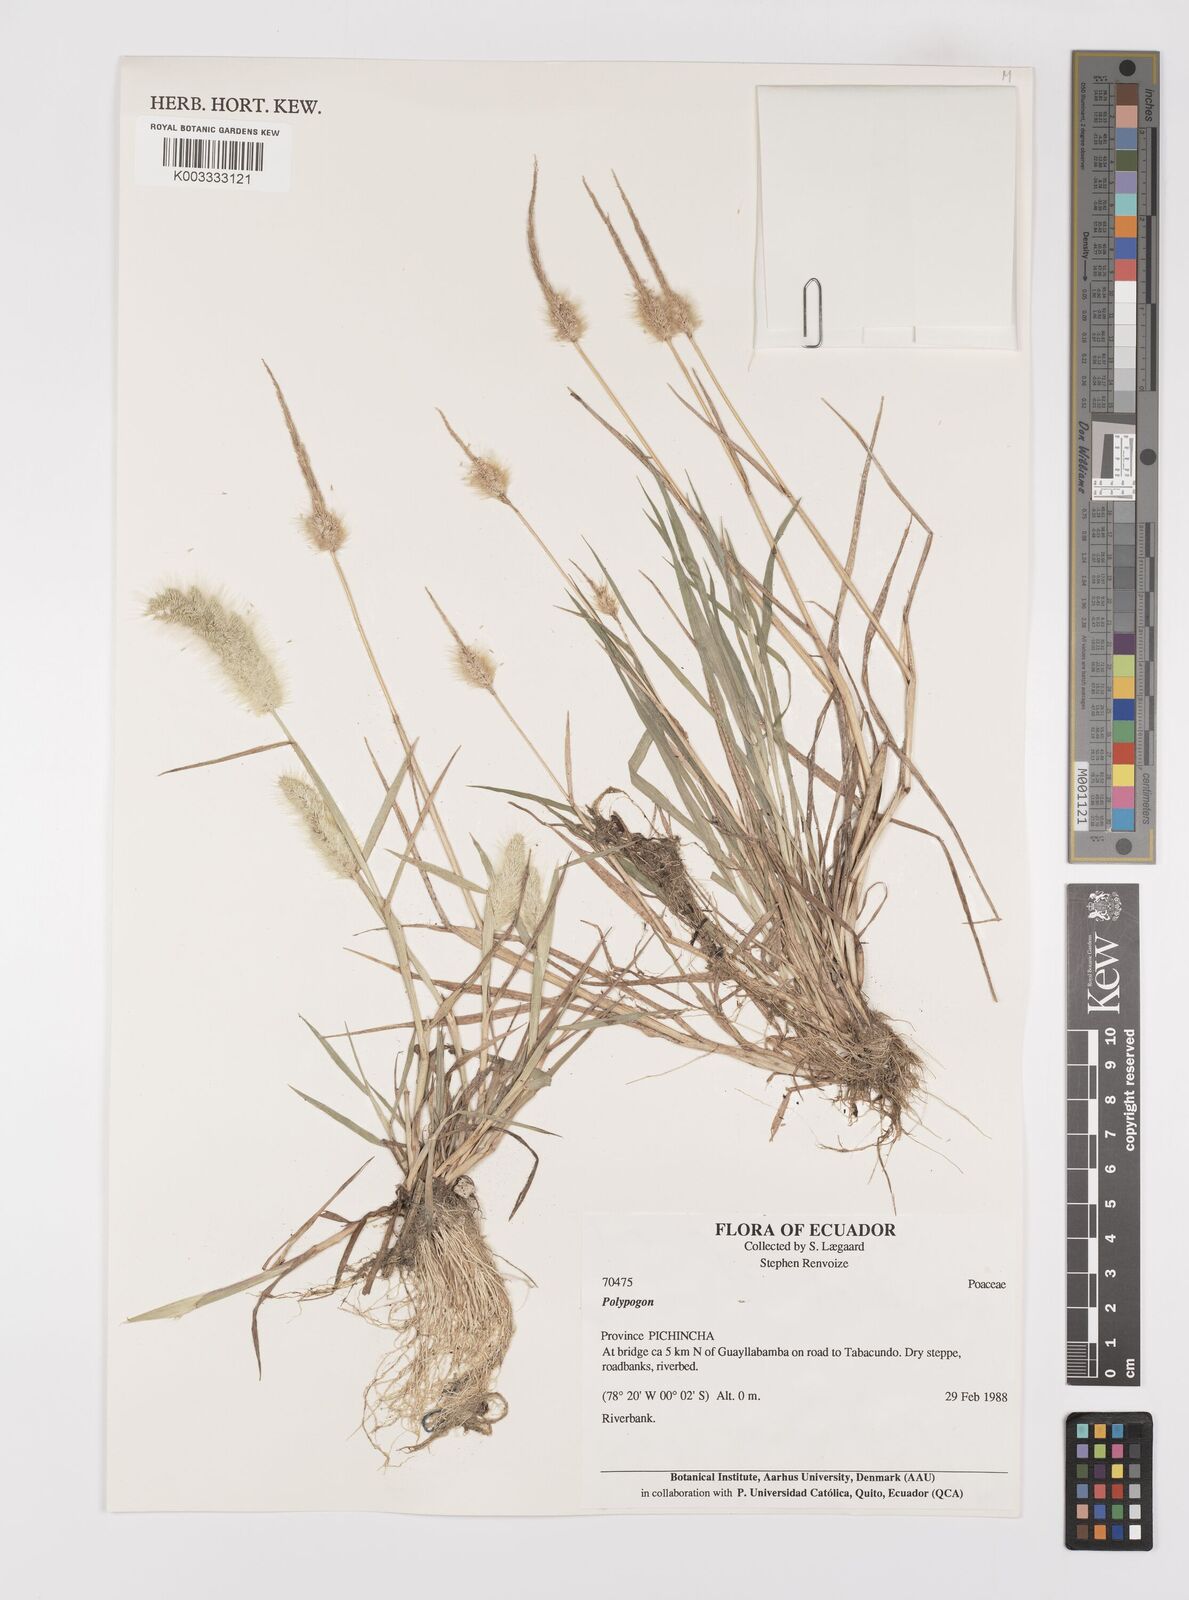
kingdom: Plantae
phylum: Tracheophyta
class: Liliopsida
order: Poales
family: Poaceae
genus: Polypogon
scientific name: Polypogon monspeliensis
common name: Annual rabbitsfoot grass
